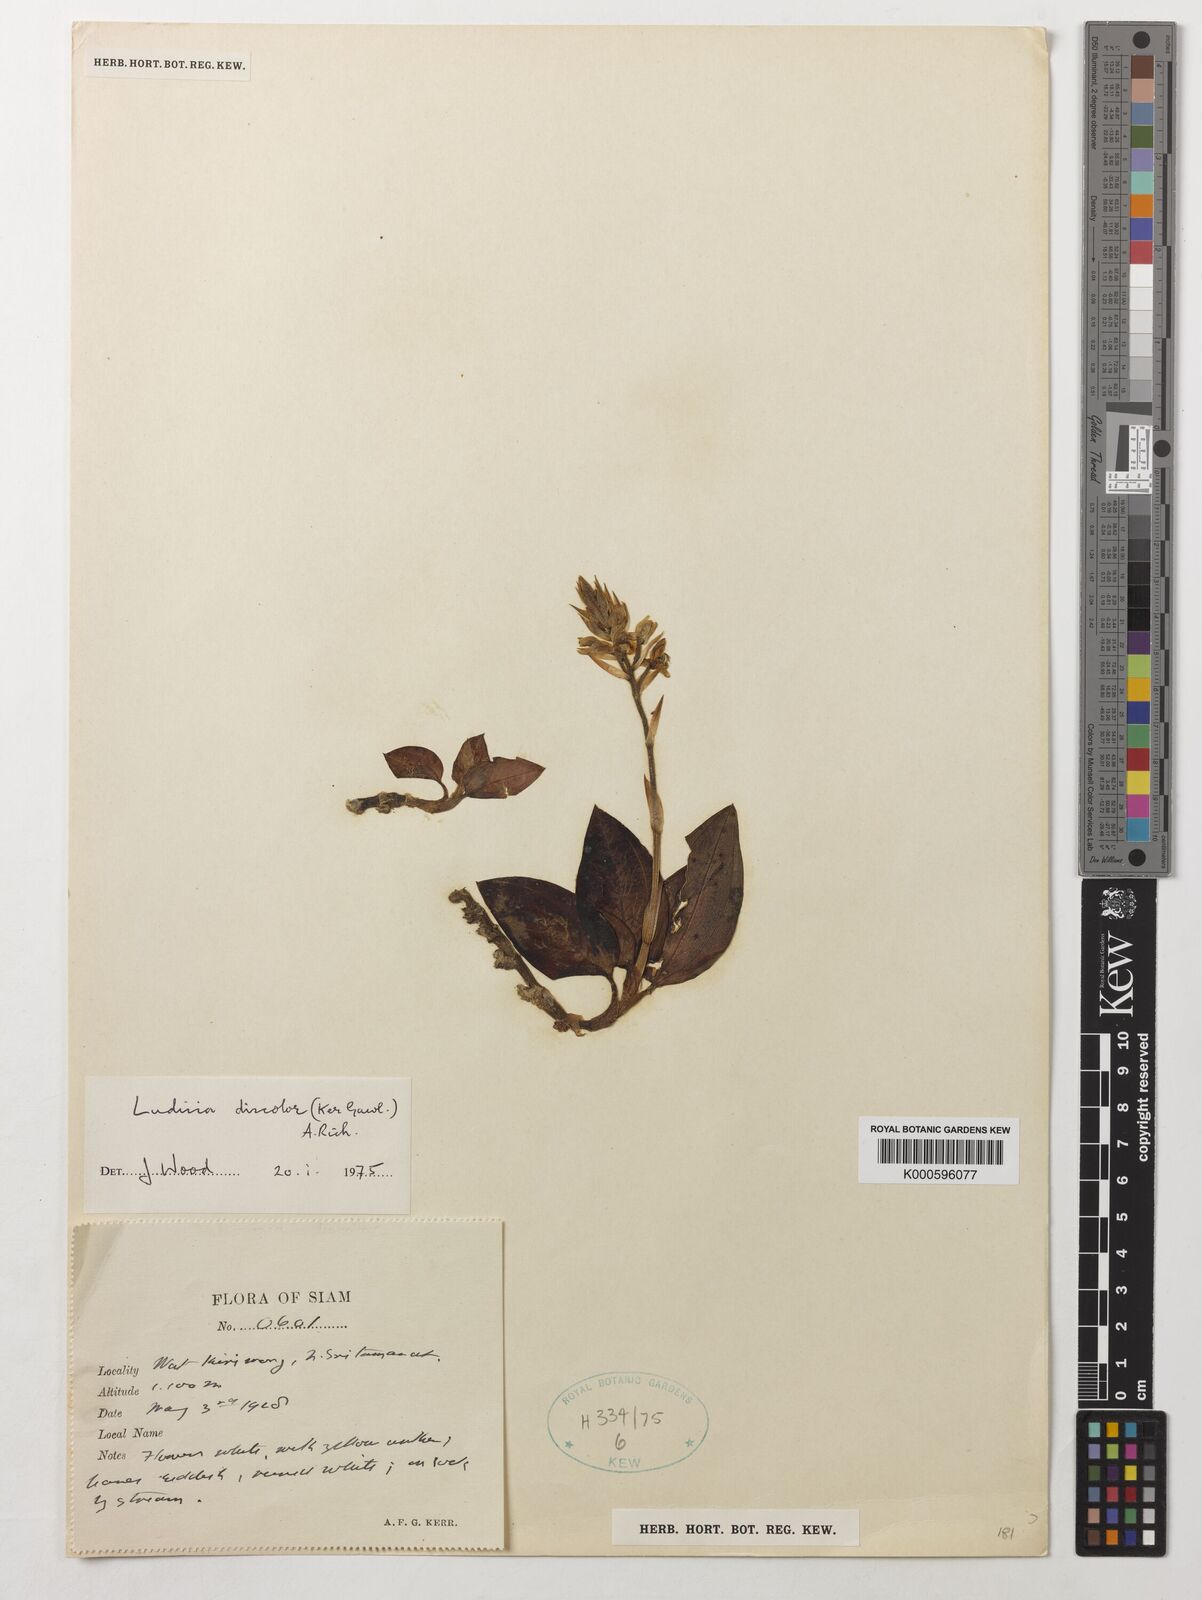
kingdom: Plantae
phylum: Tracheophyta
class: Liliopsida
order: Asparagales
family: Orchidaceae
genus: Ludisia
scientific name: Ludisia
